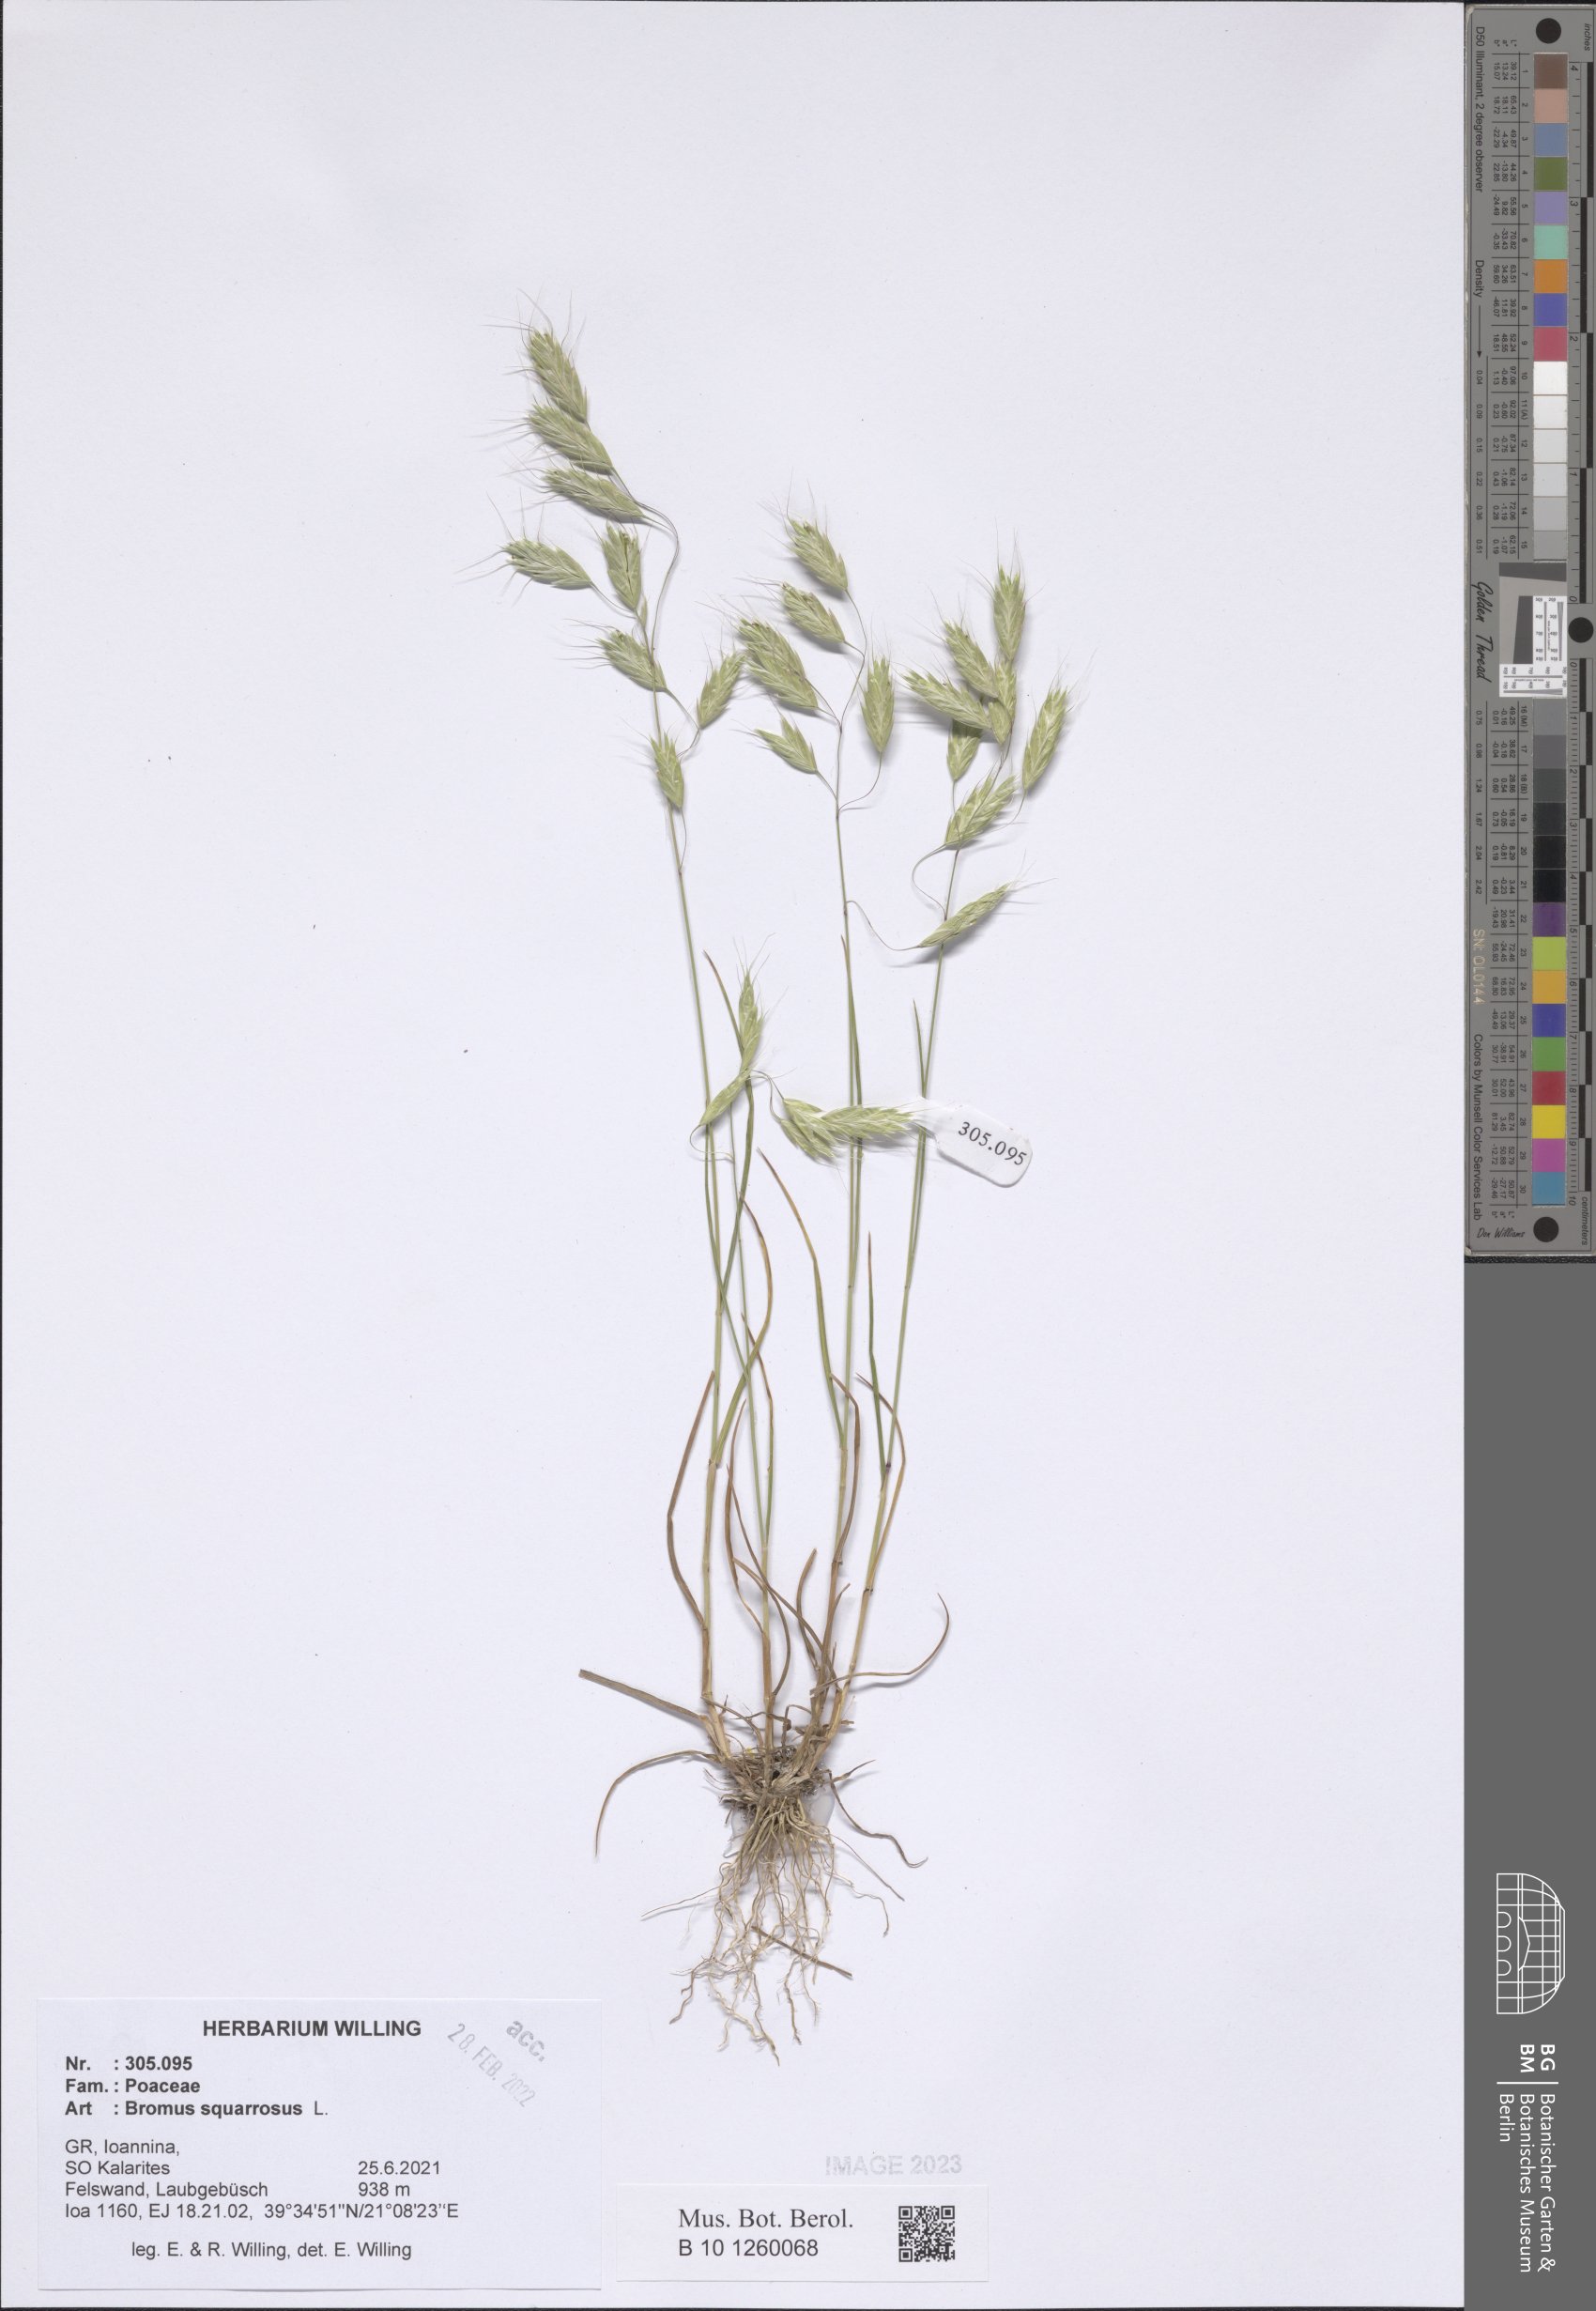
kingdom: Plantae
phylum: Tracheophyta
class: Liliopsida
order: Poales
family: Poaceae
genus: Bromus
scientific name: Bromus squarrosus
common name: Corn brome
